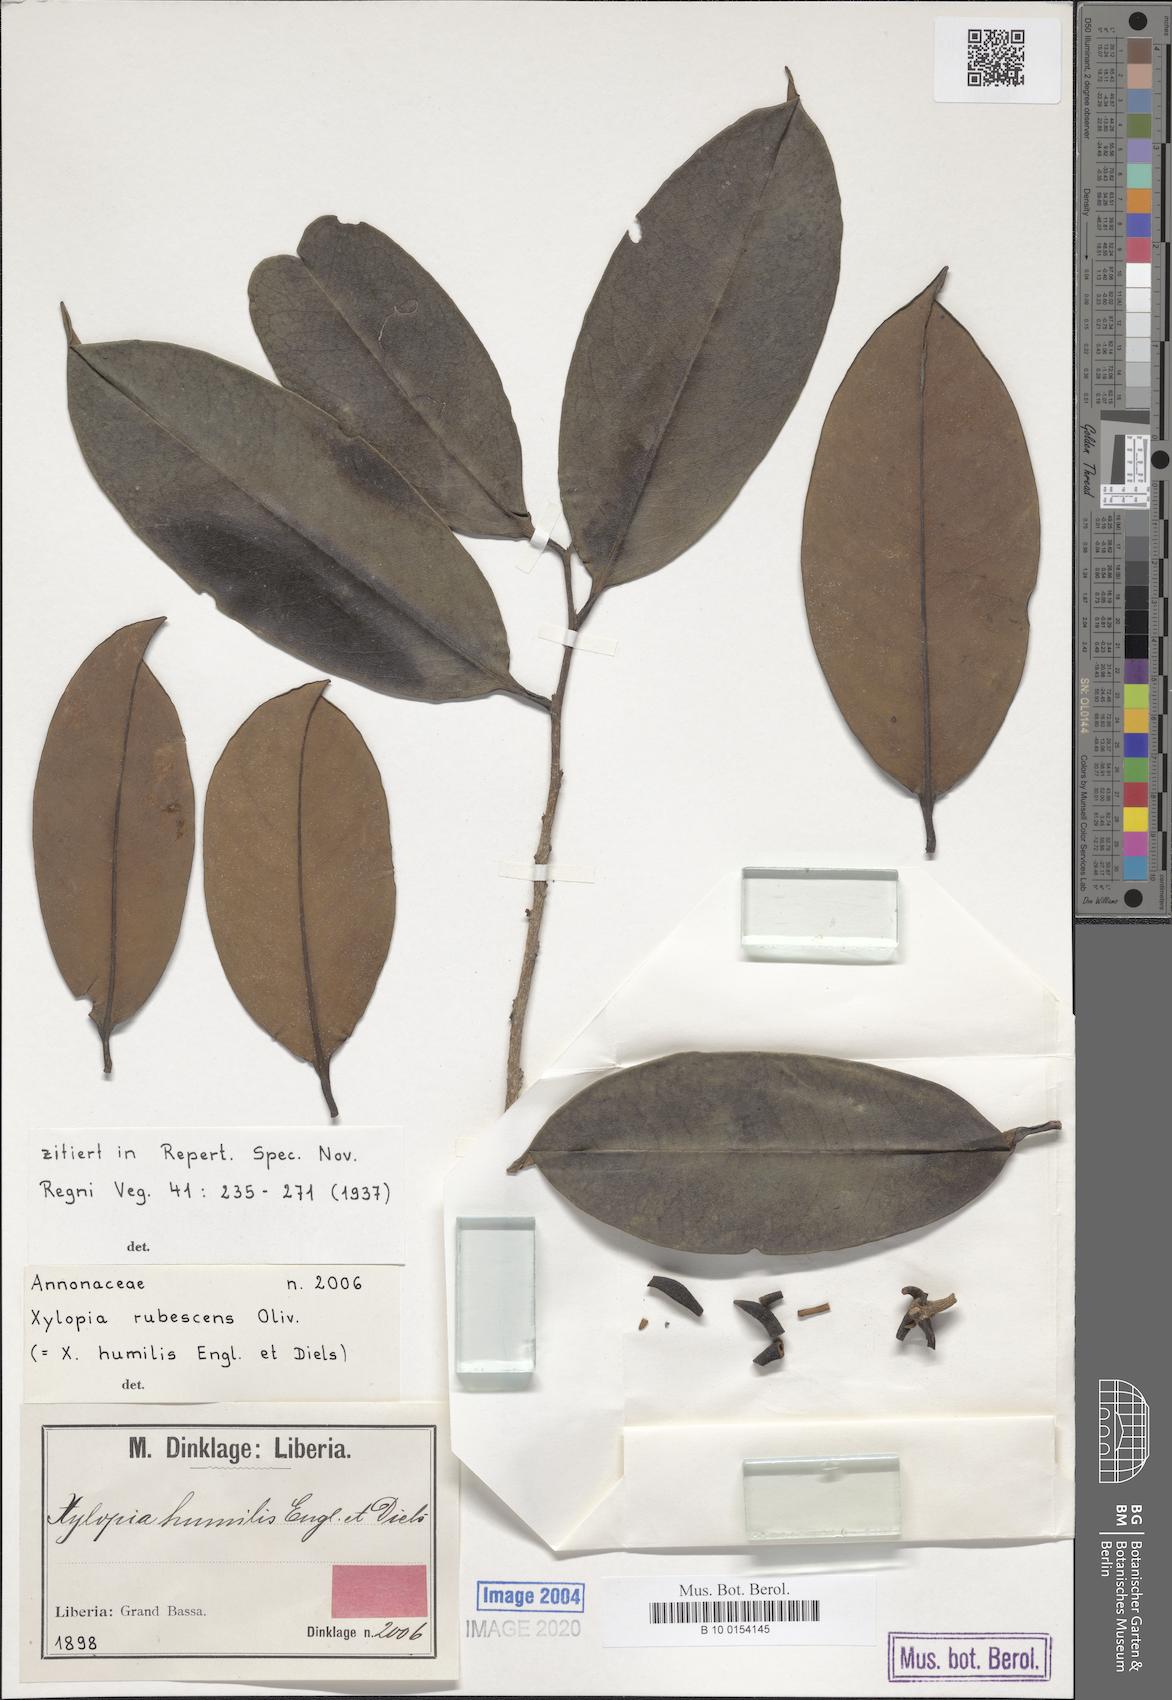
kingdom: Plantae
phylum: Tracheophyta
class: Magnoliopsida
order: Magnoliales
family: Annonaceae
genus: Xylopia
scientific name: Xylopia rubescens
